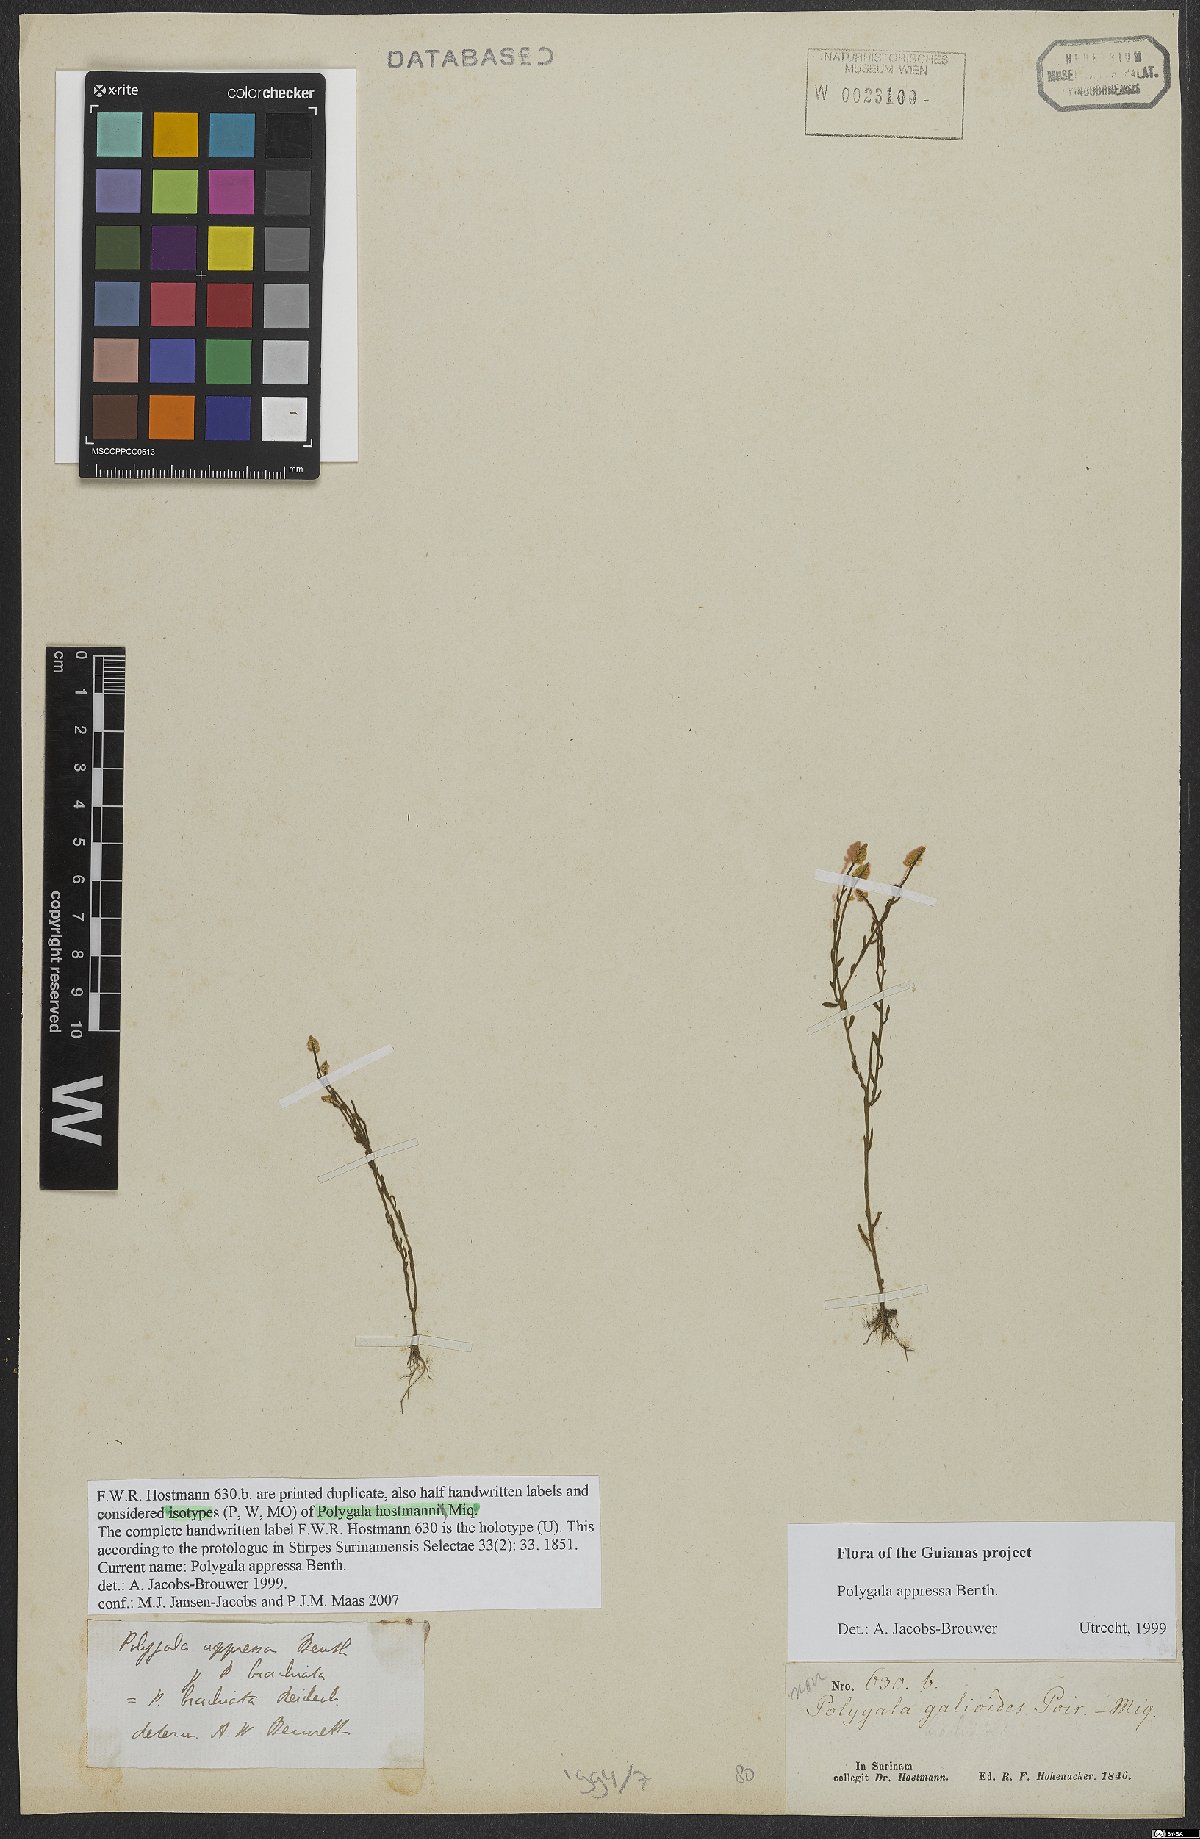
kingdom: Plantae
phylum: Tracheophyta
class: Magnoliopsida
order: Fabales
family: Polygalaceae
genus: Polygala
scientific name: Polygala appressa
